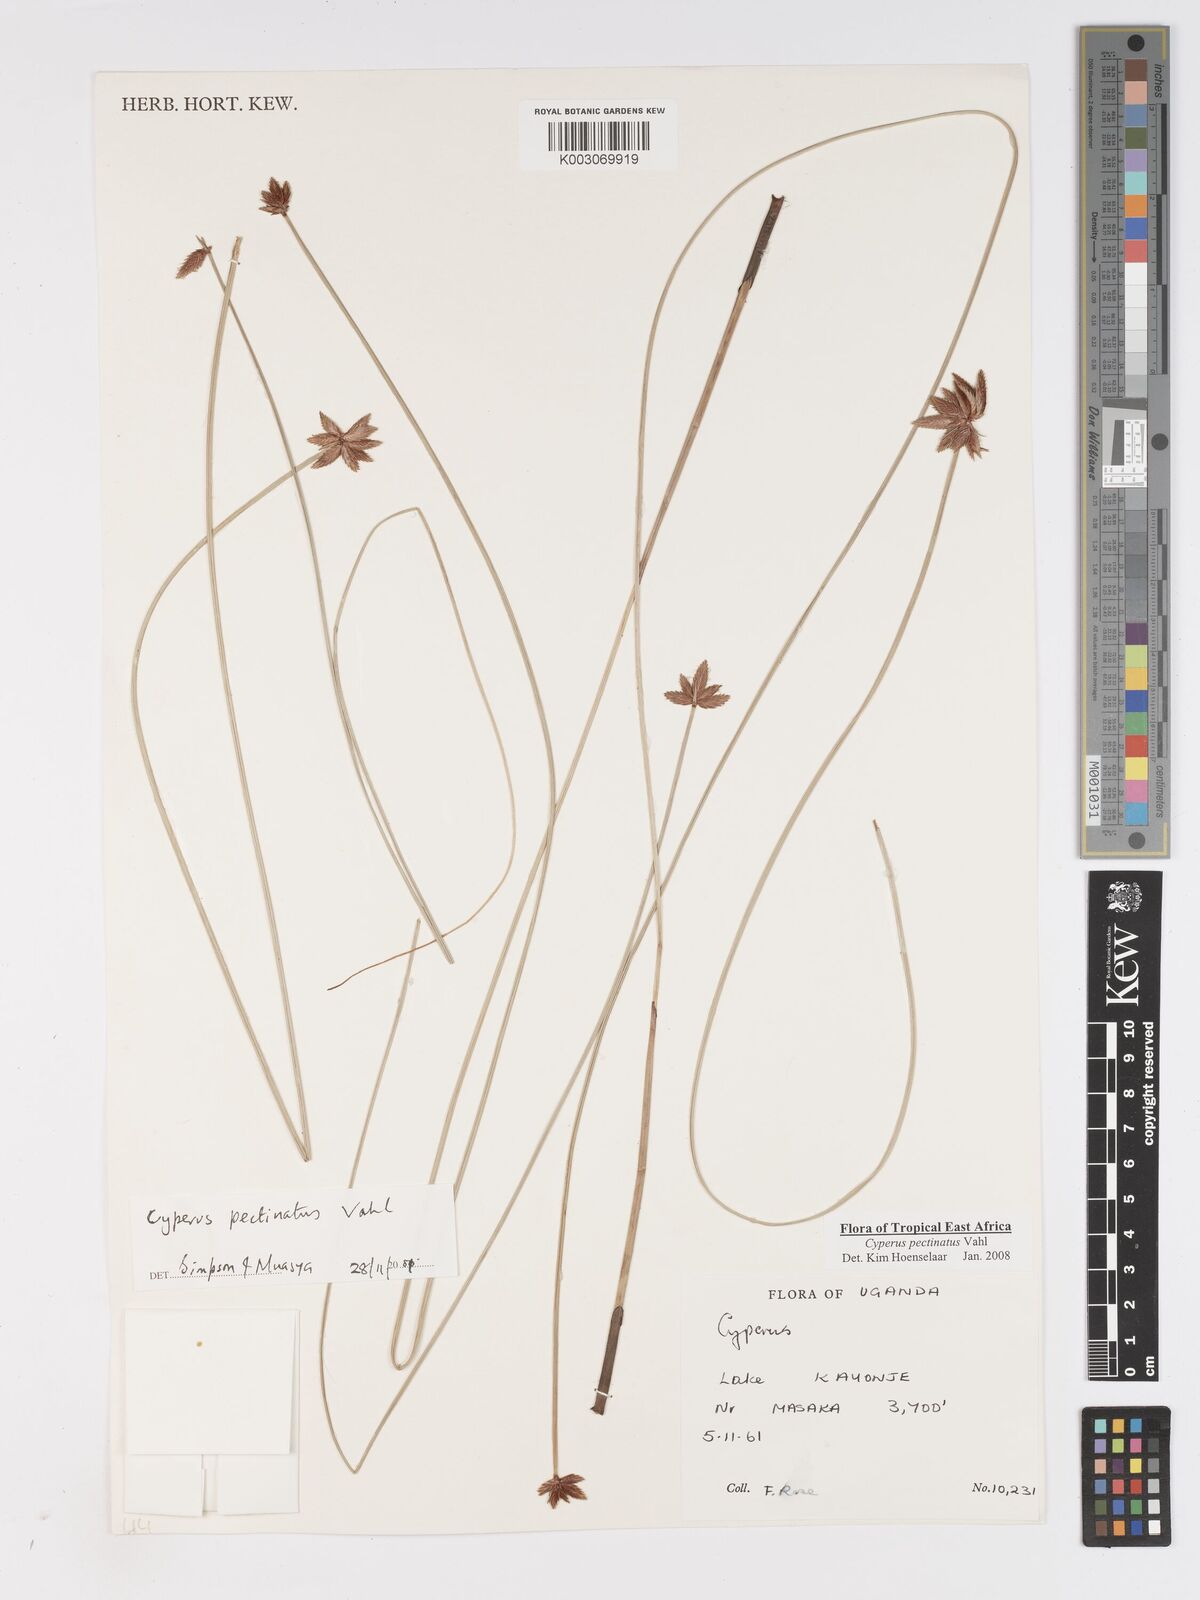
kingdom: Plantae
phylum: Tracheophyta
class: Liliopsida
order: Poales
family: Cyperaceae
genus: Cyperus
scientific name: Cyperus pectinatus
